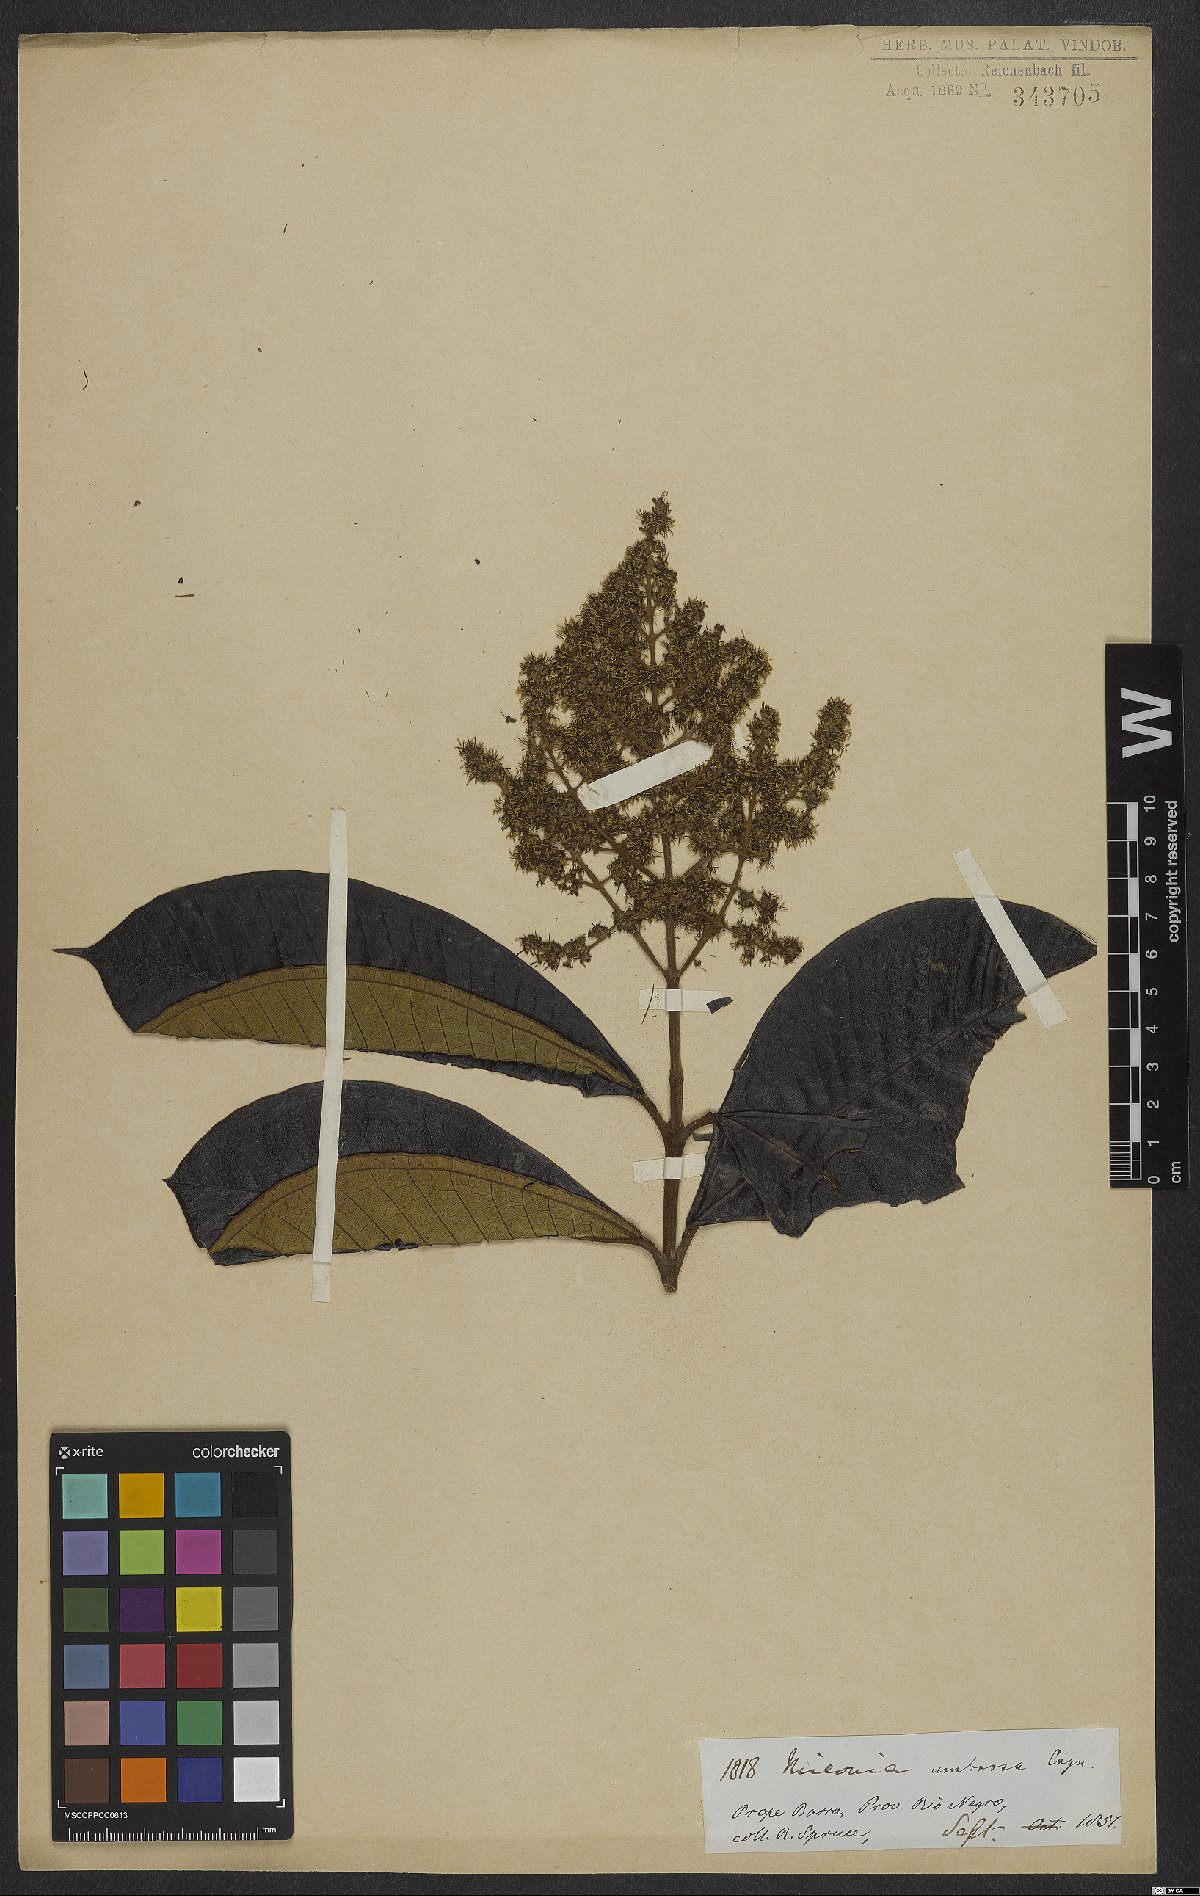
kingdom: Plantae
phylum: Tracheophyta
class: Magnoliopsida
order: Myrtales
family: Melastomataceae
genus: Miconia
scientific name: Miconia umbrosa
